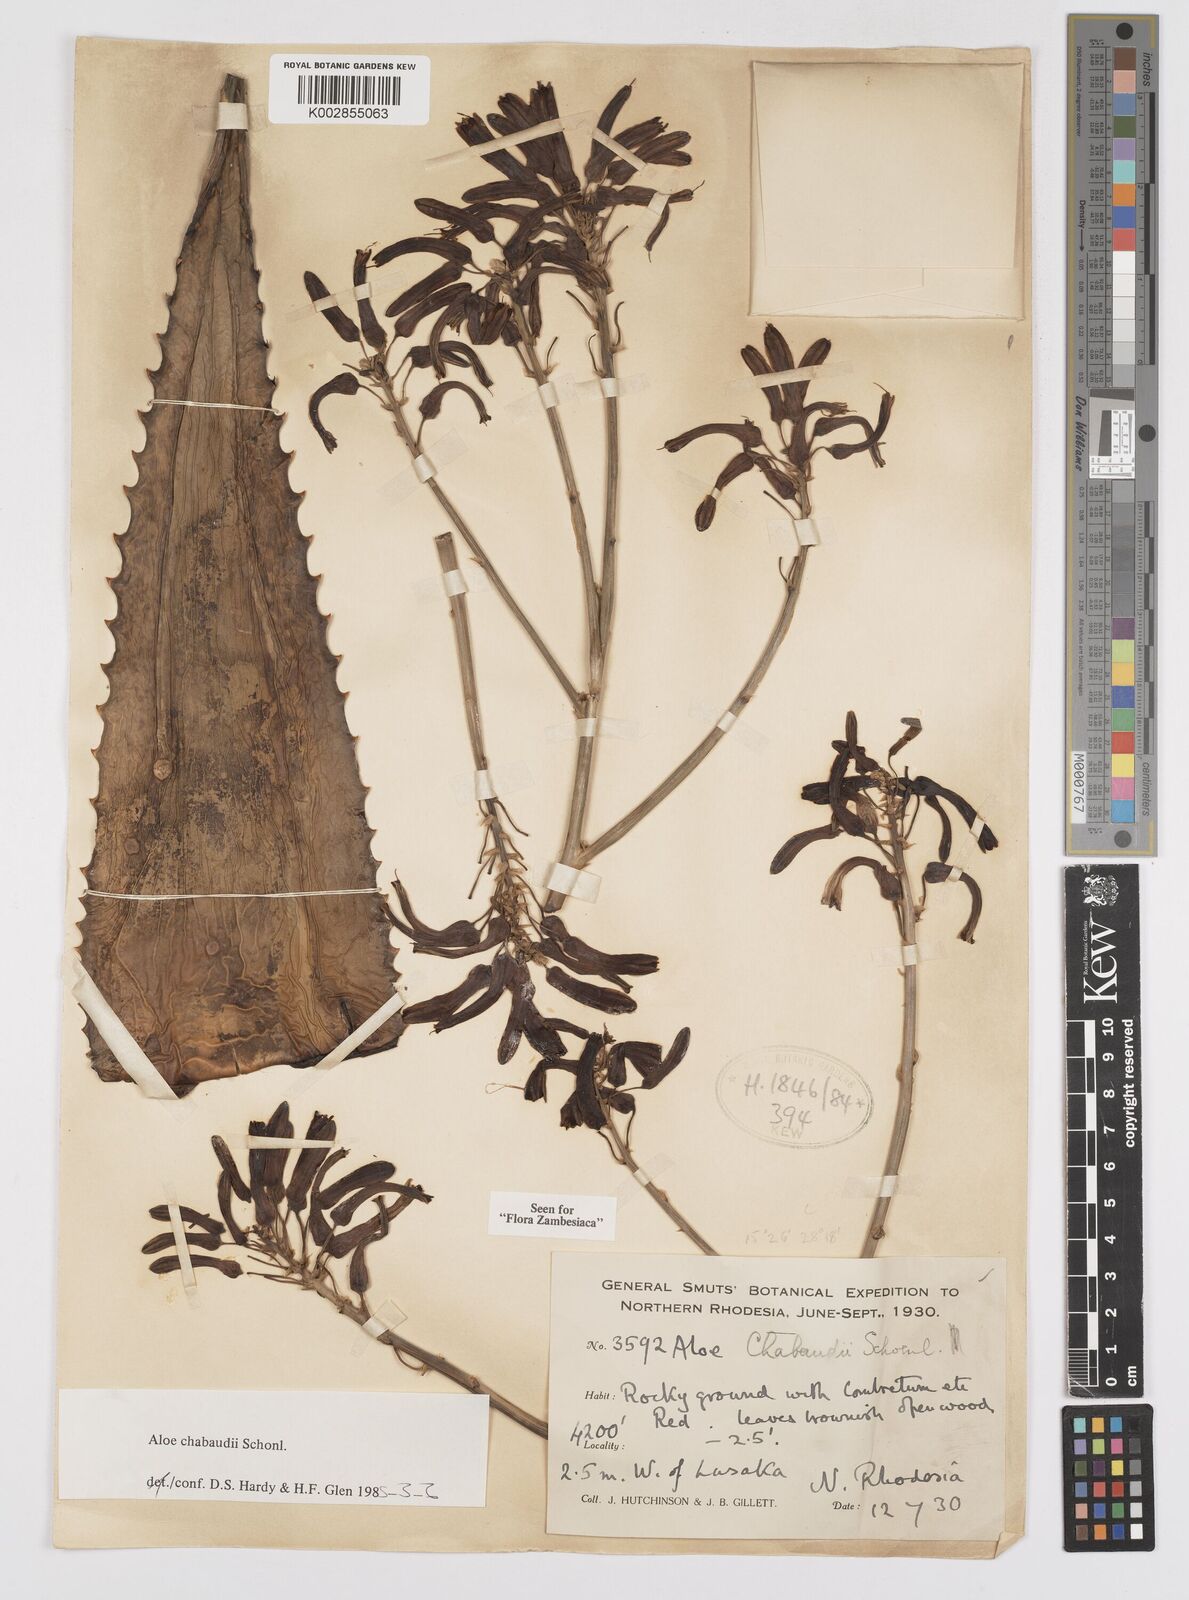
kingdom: Plantae
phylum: Tracheophyta
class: Liliopsida
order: Asparagales
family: Asphodelaceae
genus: Aloe
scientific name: Aloe chabaudii
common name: Chabaud's aloe
